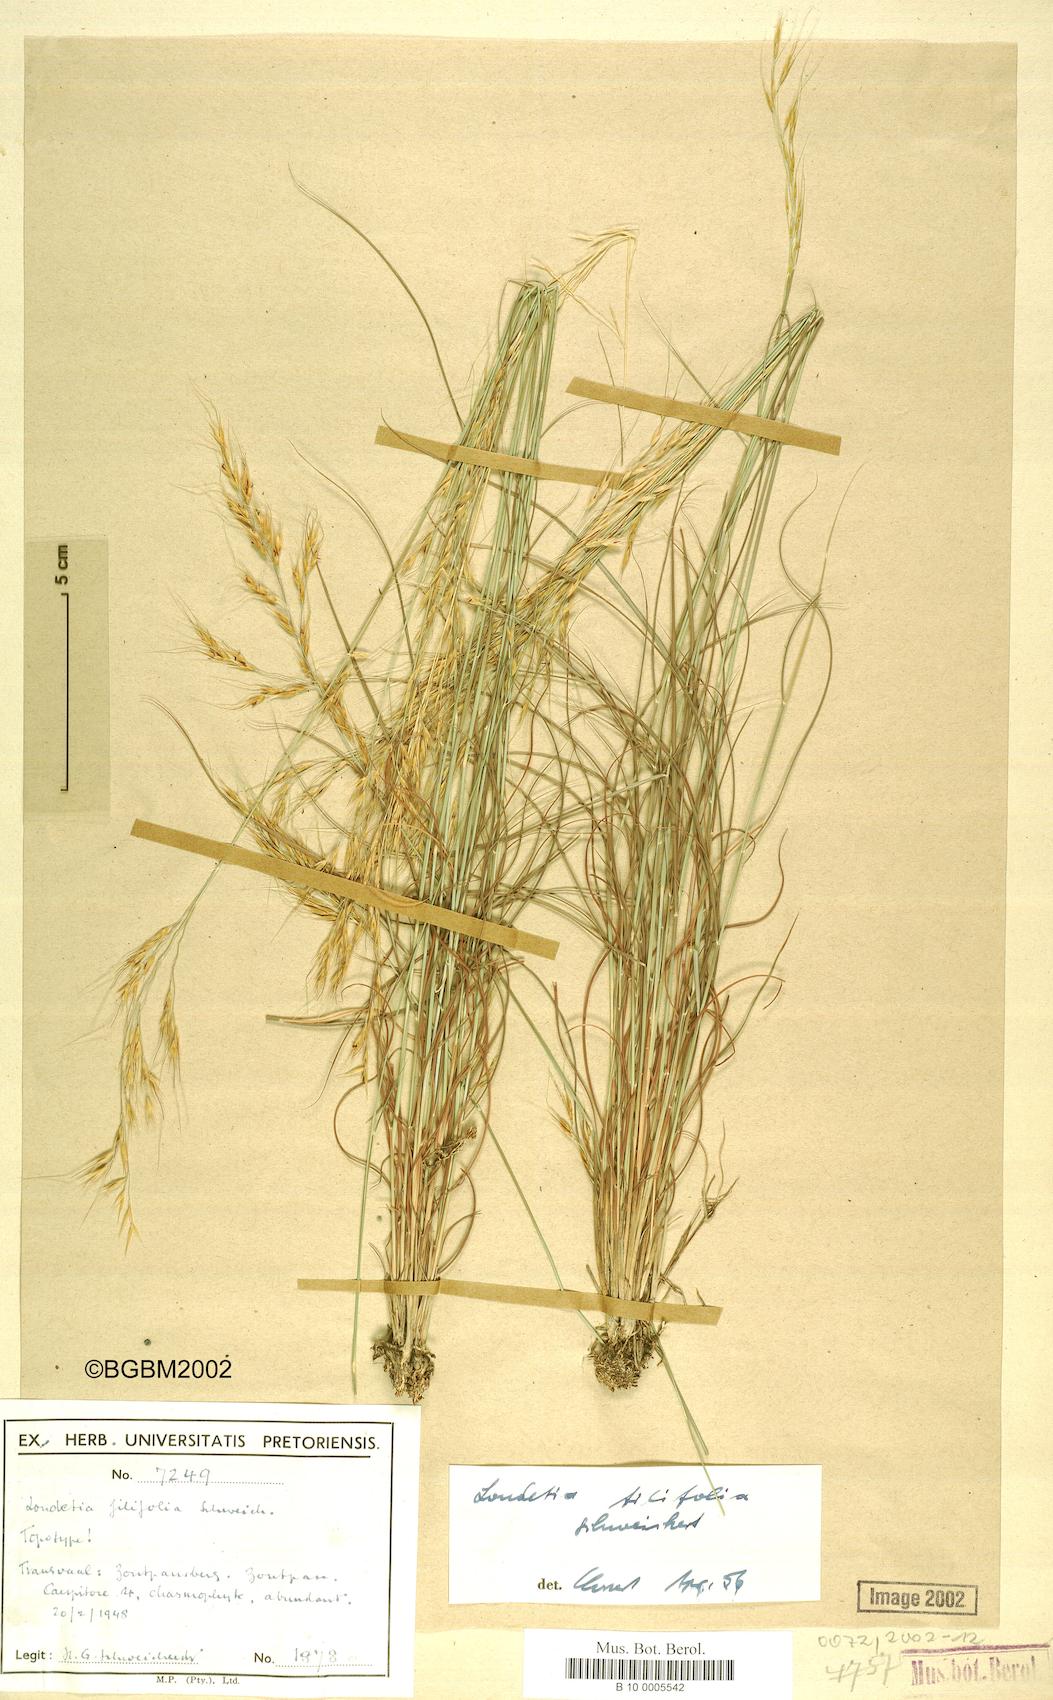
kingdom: Plantae
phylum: Tracheophyta
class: Liliopsida
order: Poales
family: Poaceae
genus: Loudetia
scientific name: Loudetia filifolia
